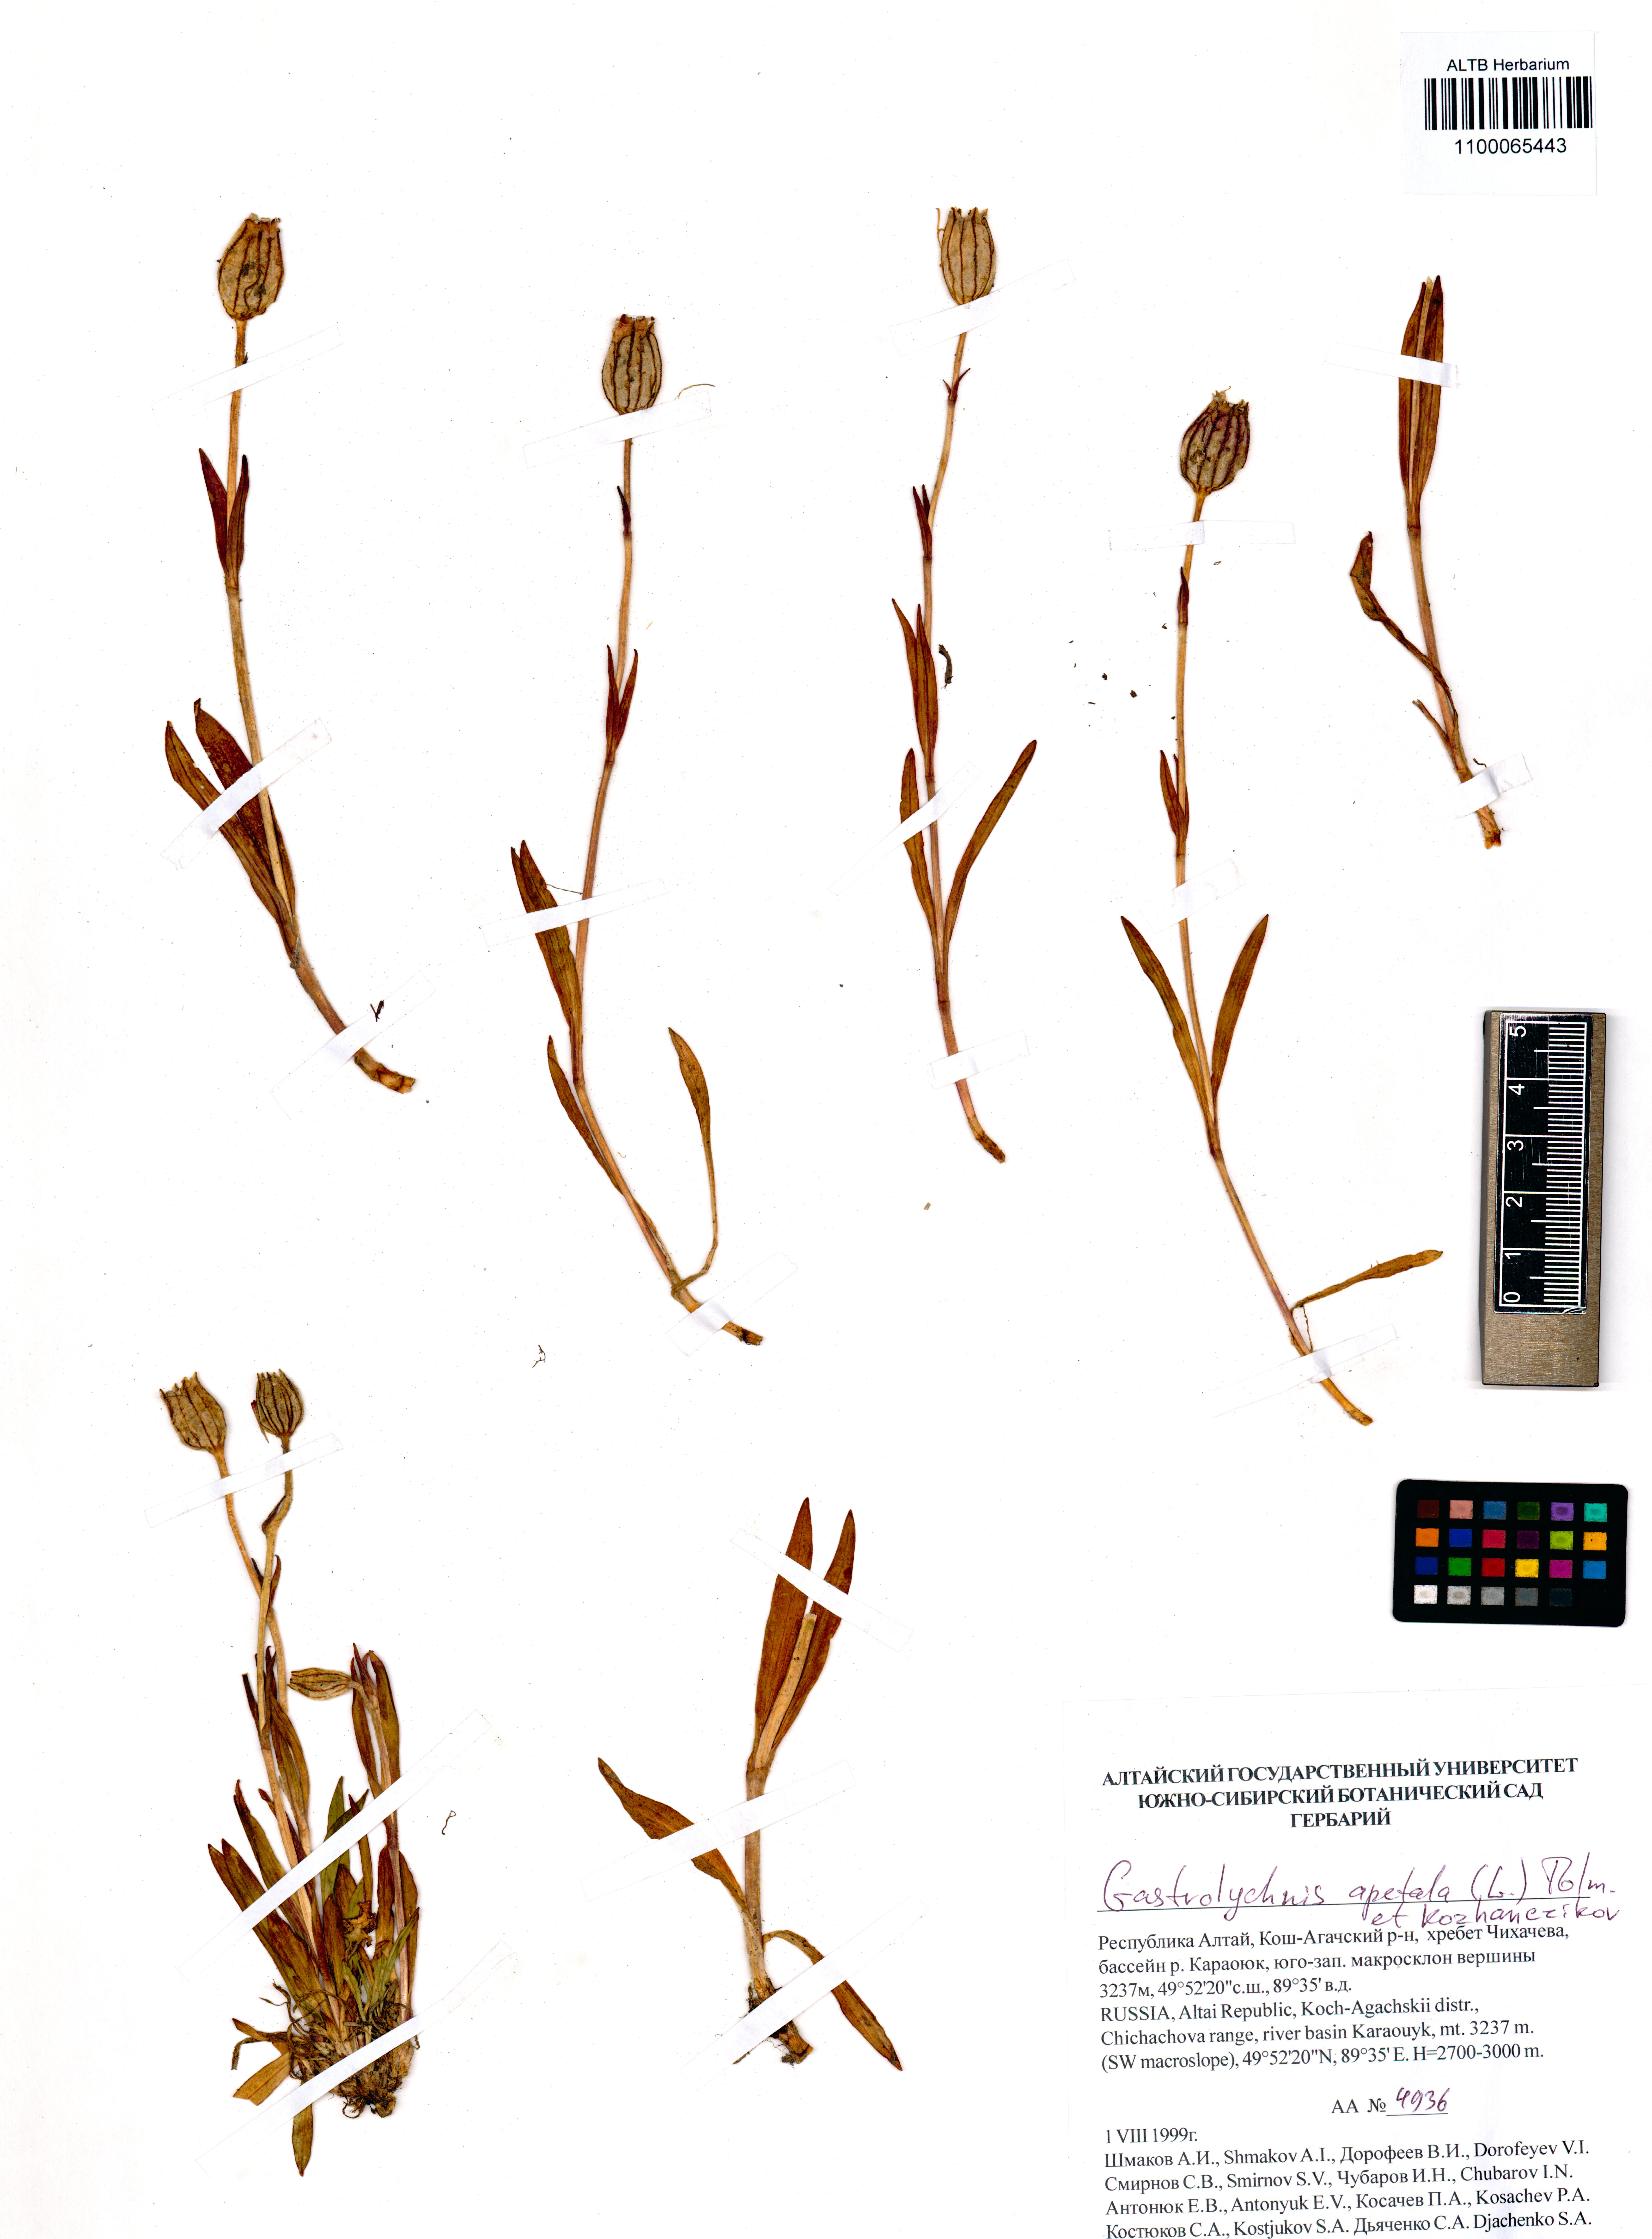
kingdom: Plantae
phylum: Tracheophyta
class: Magnoliopsida
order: Caryophyllales
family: Caryophyllaceae
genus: Silene
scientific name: Silene wahlbergella
